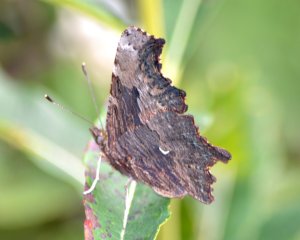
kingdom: Animalia
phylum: Arthropoda
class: Insecta
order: Lepidoptera
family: Nymphalidae
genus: Polygonia
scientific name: Polygonia progne
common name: Gray Comma
